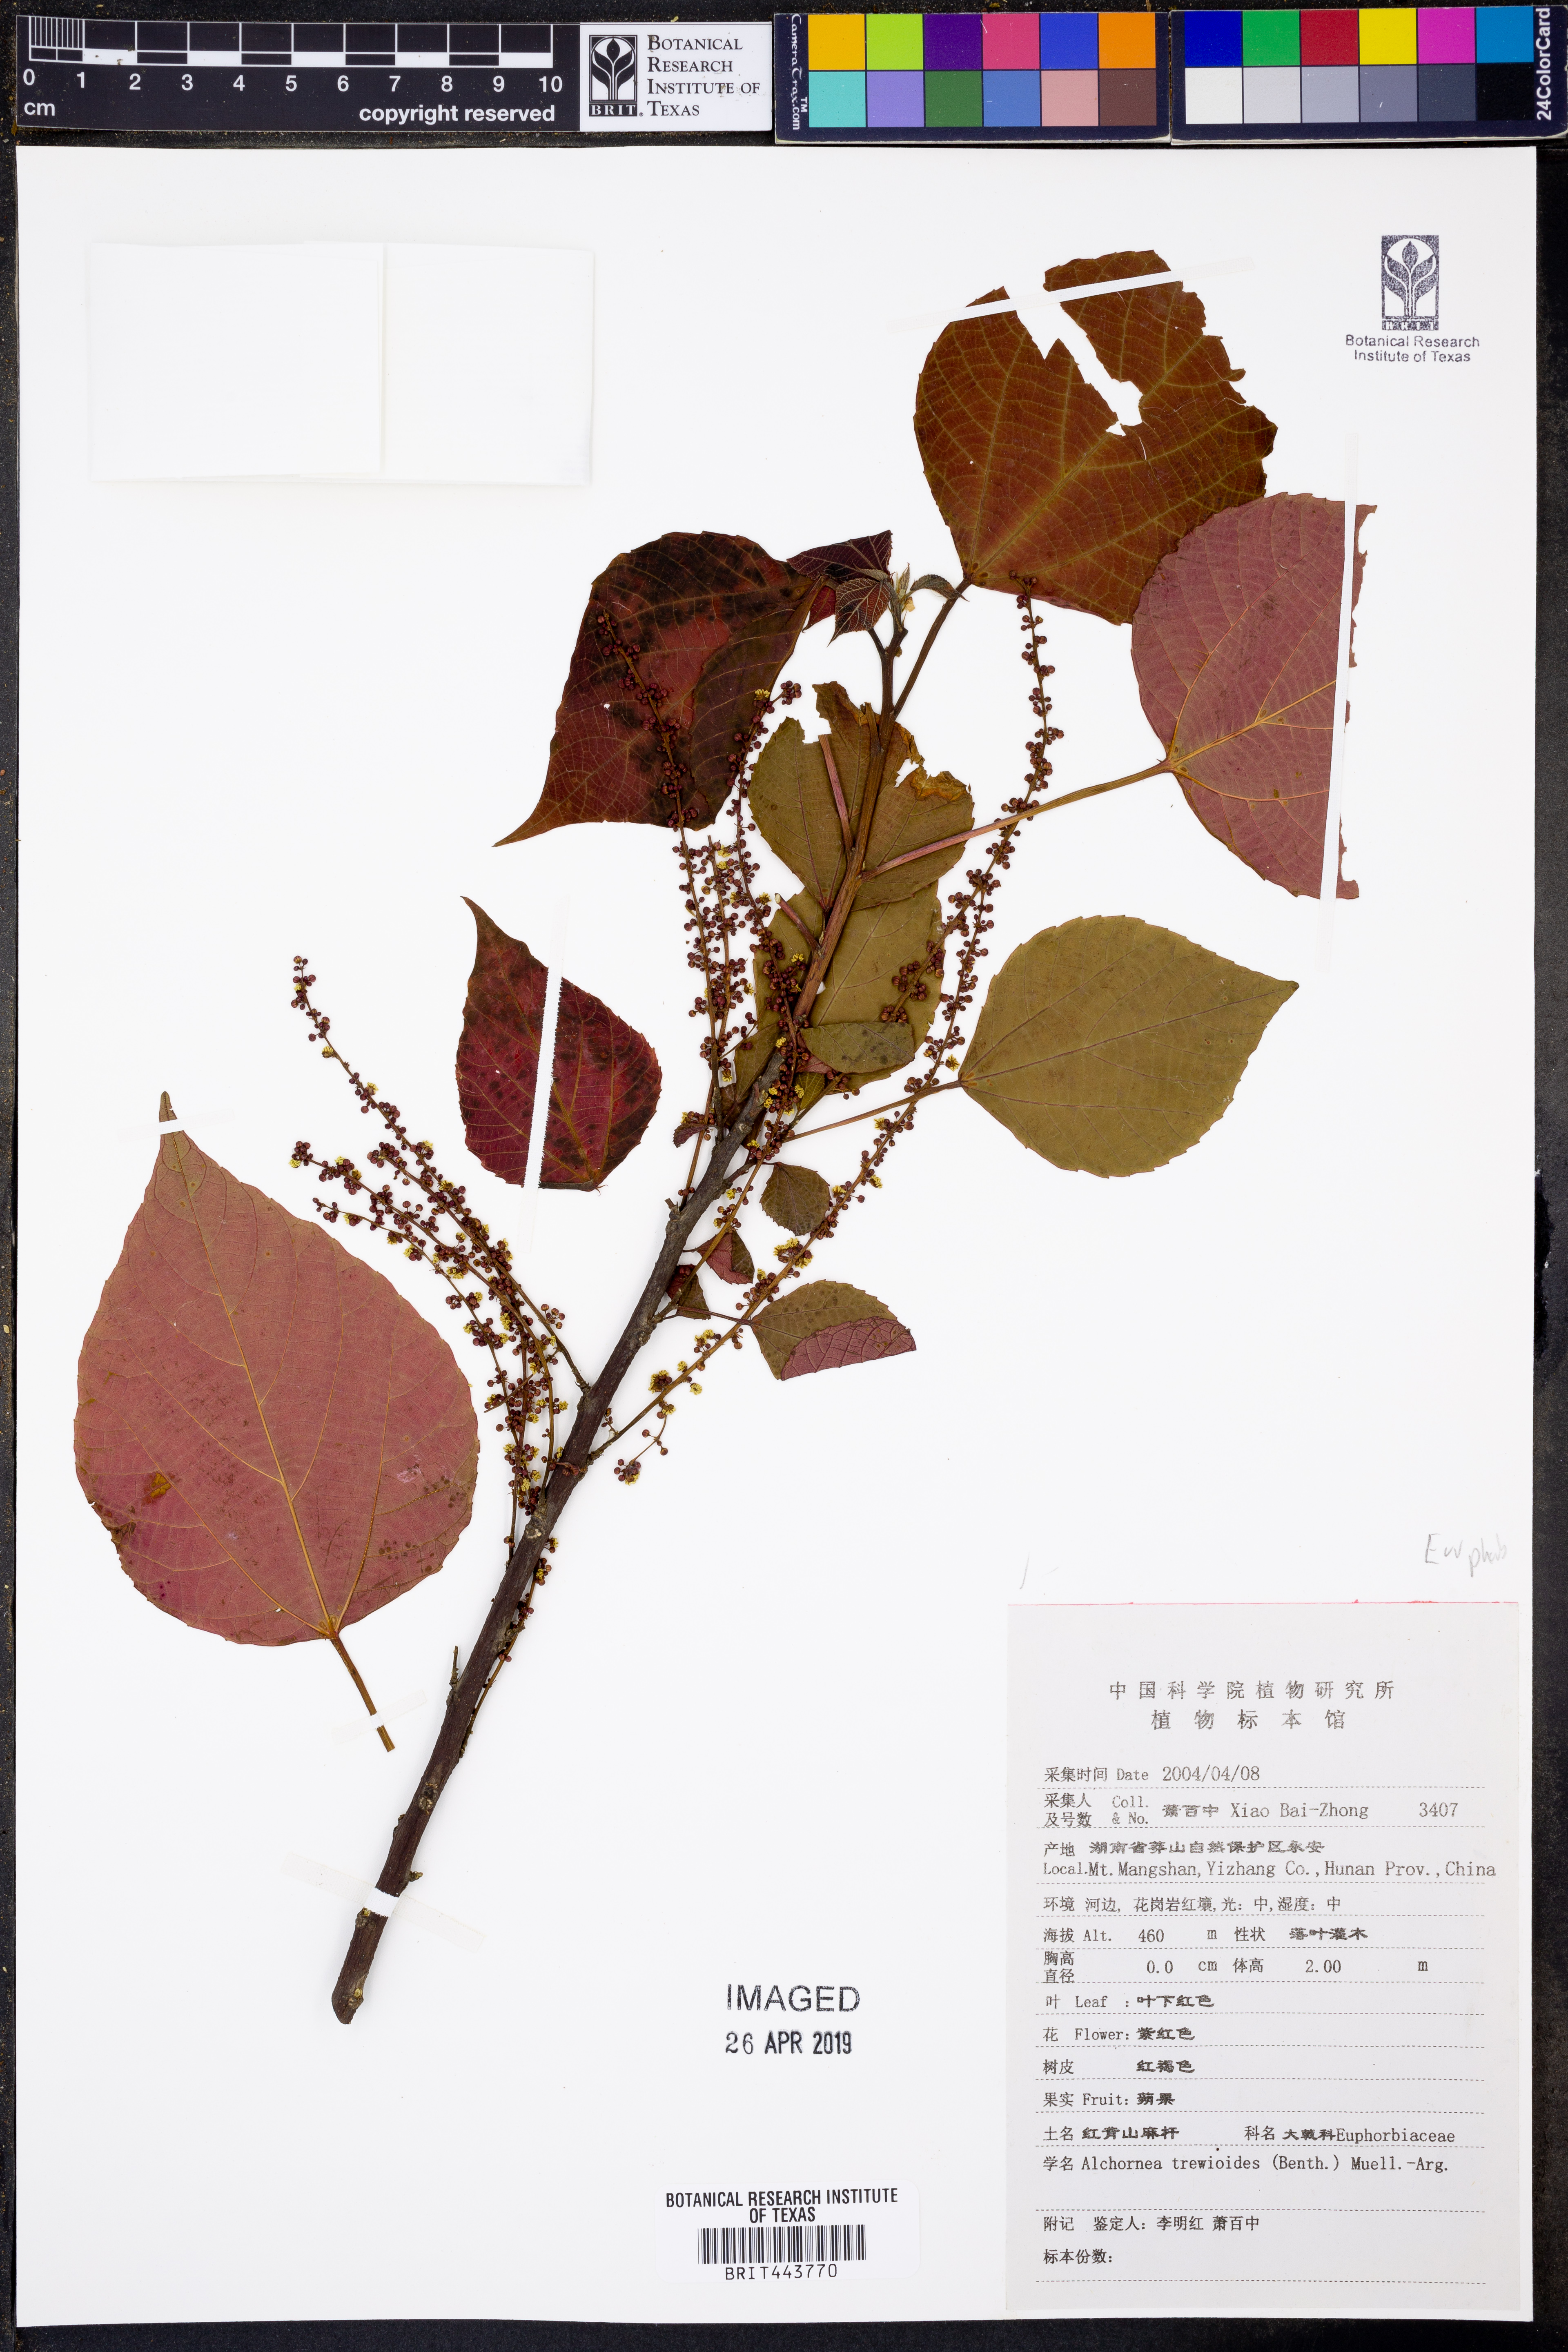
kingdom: Plantae
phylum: Tracheophyta
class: Magnoliopsida
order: Malpighiales
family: Euphorbiaceae
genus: Alchornea
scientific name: Alchornea trewioides
